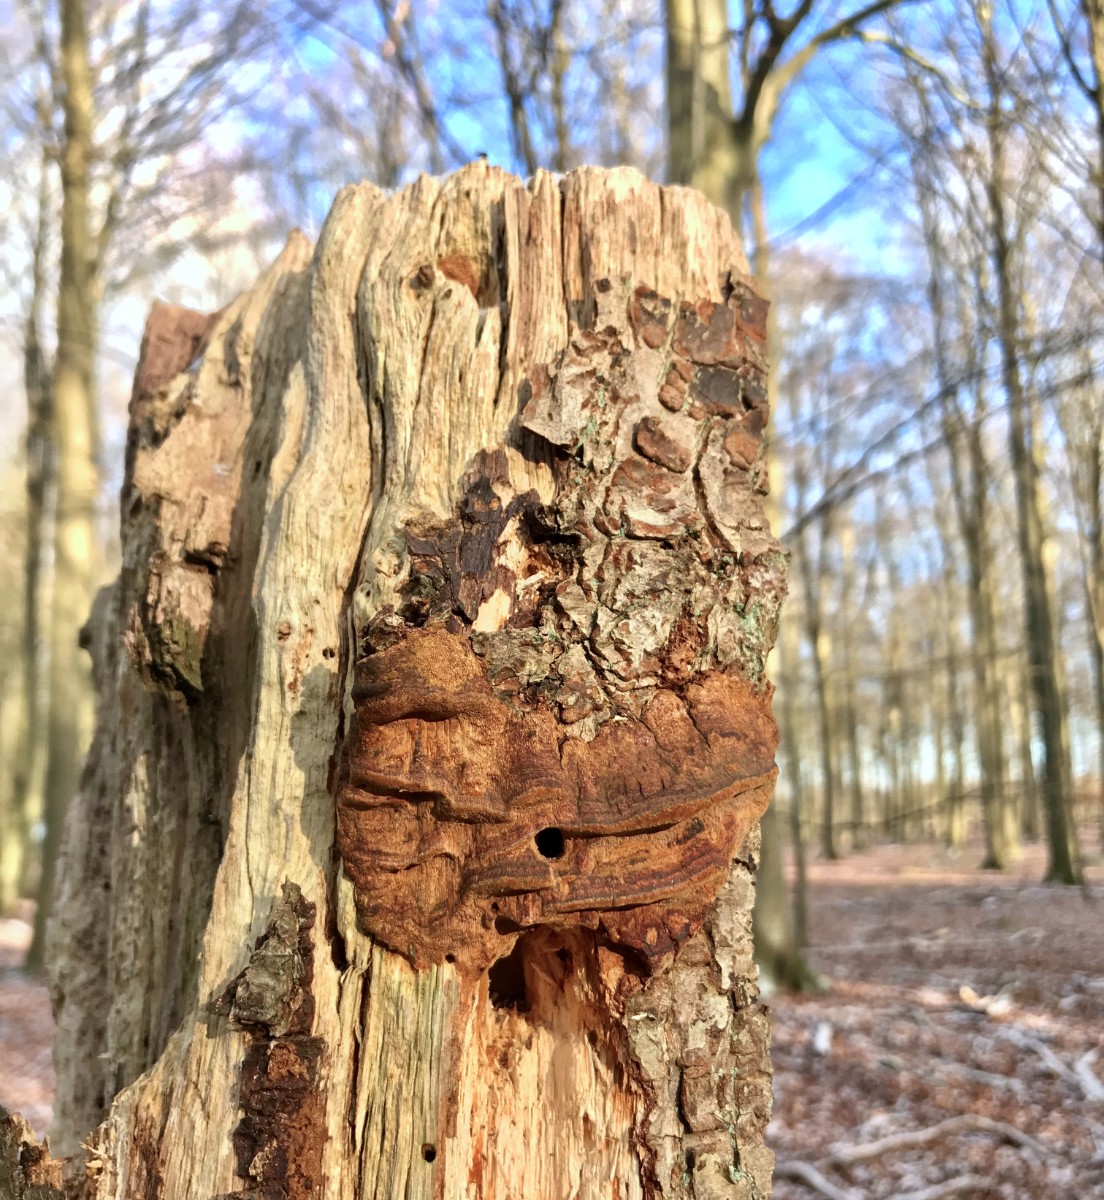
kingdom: Fungi
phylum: Basidiomycota
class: Agaricomycetes
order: Hymenochaetales
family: Hymenochaetaceae
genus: Fuscoporia
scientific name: Fuscoporia ferrea
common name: skorpe-ildporesvamp
